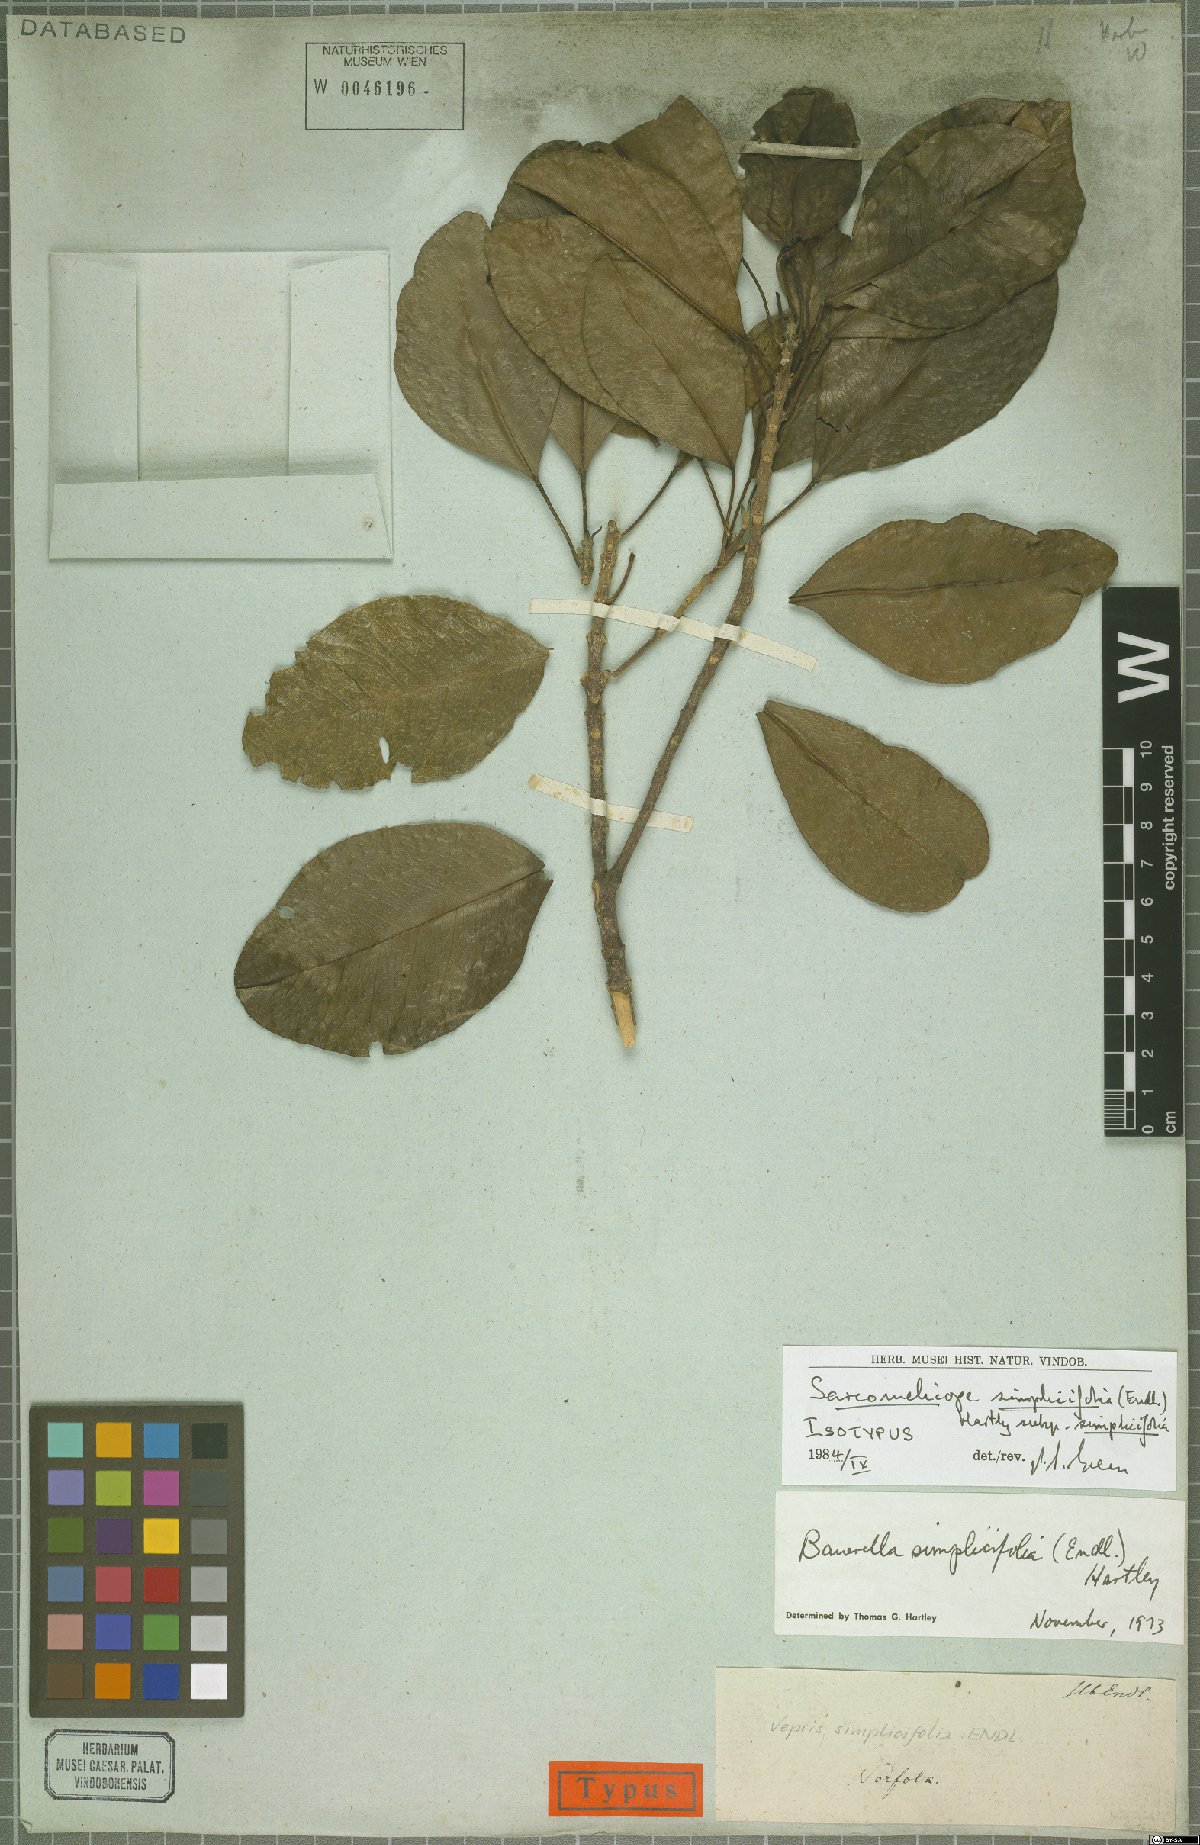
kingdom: Plantae
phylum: Tracheophyta
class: Magnoliopsida
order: Sapindales
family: Rutaceae
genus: Sarcomelicope
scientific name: Sarcomelicope simplicifolia
